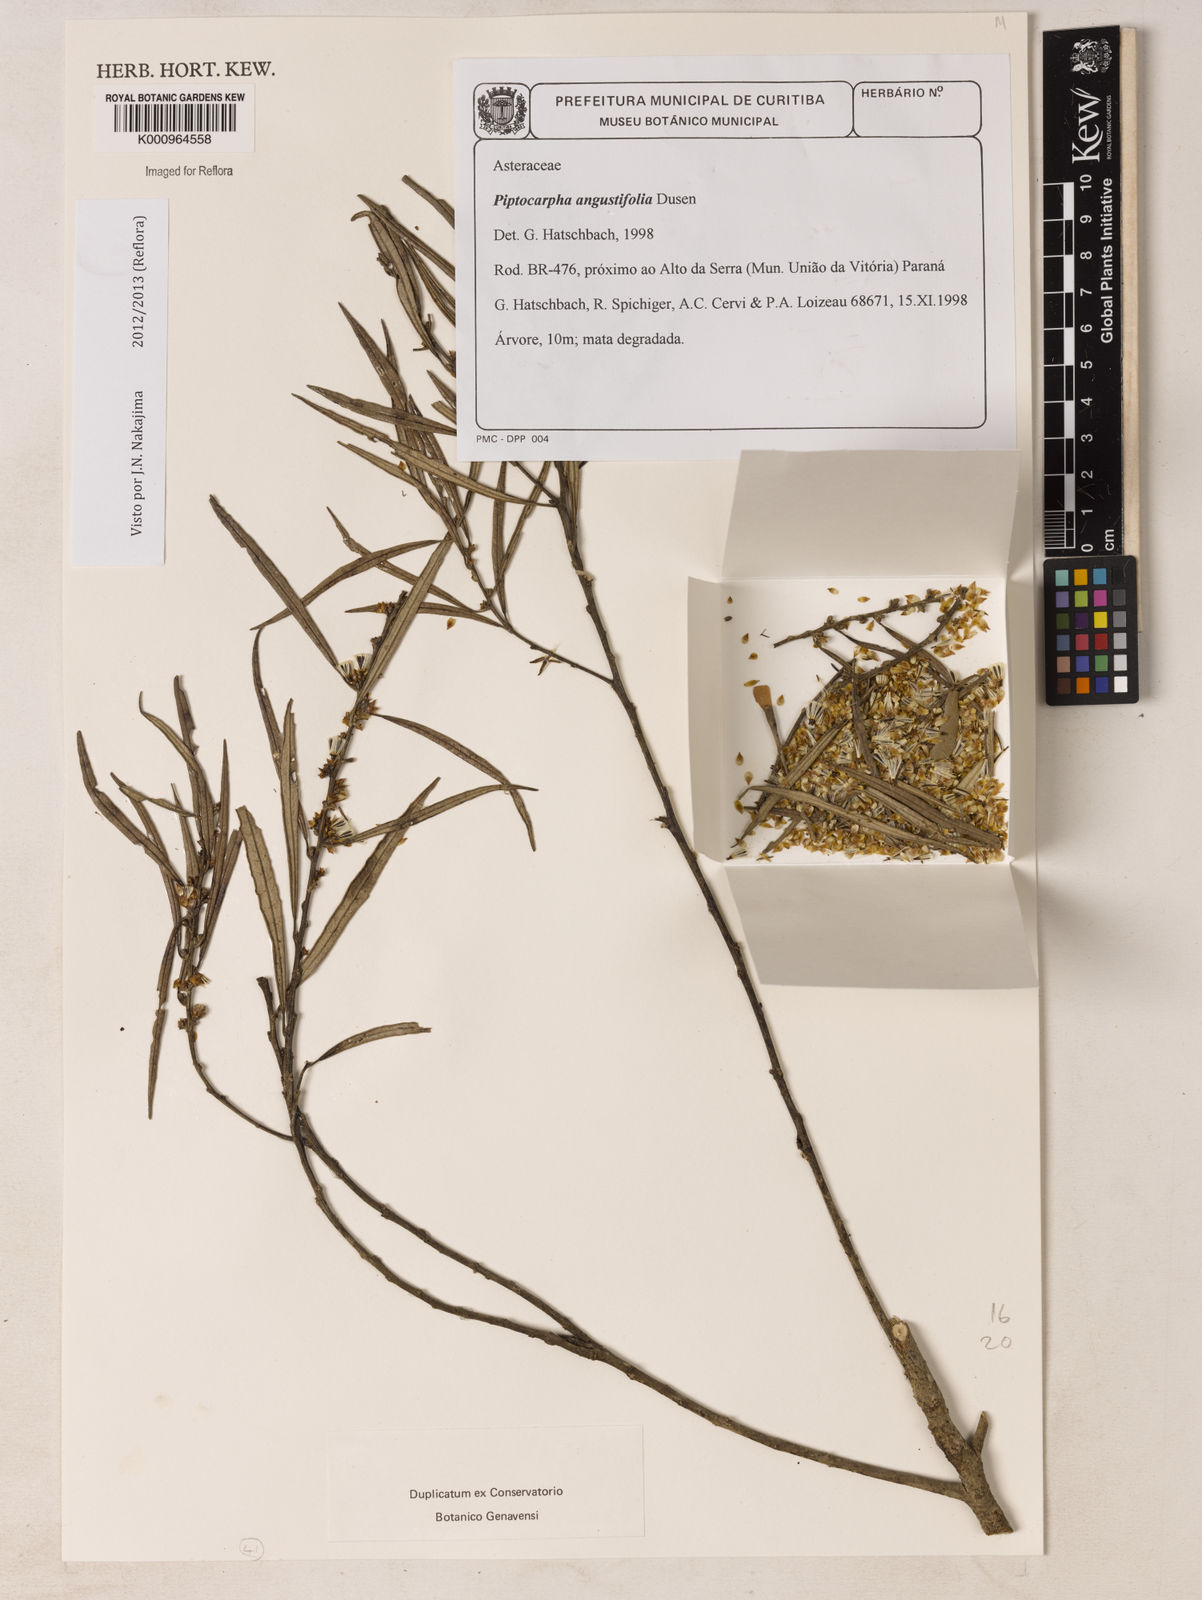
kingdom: Plantae
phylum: Tracheophyta
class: Magnoliopsida
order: Asterales
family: Asteraceae
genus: Piptocarpha
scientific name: Piptocarpha
